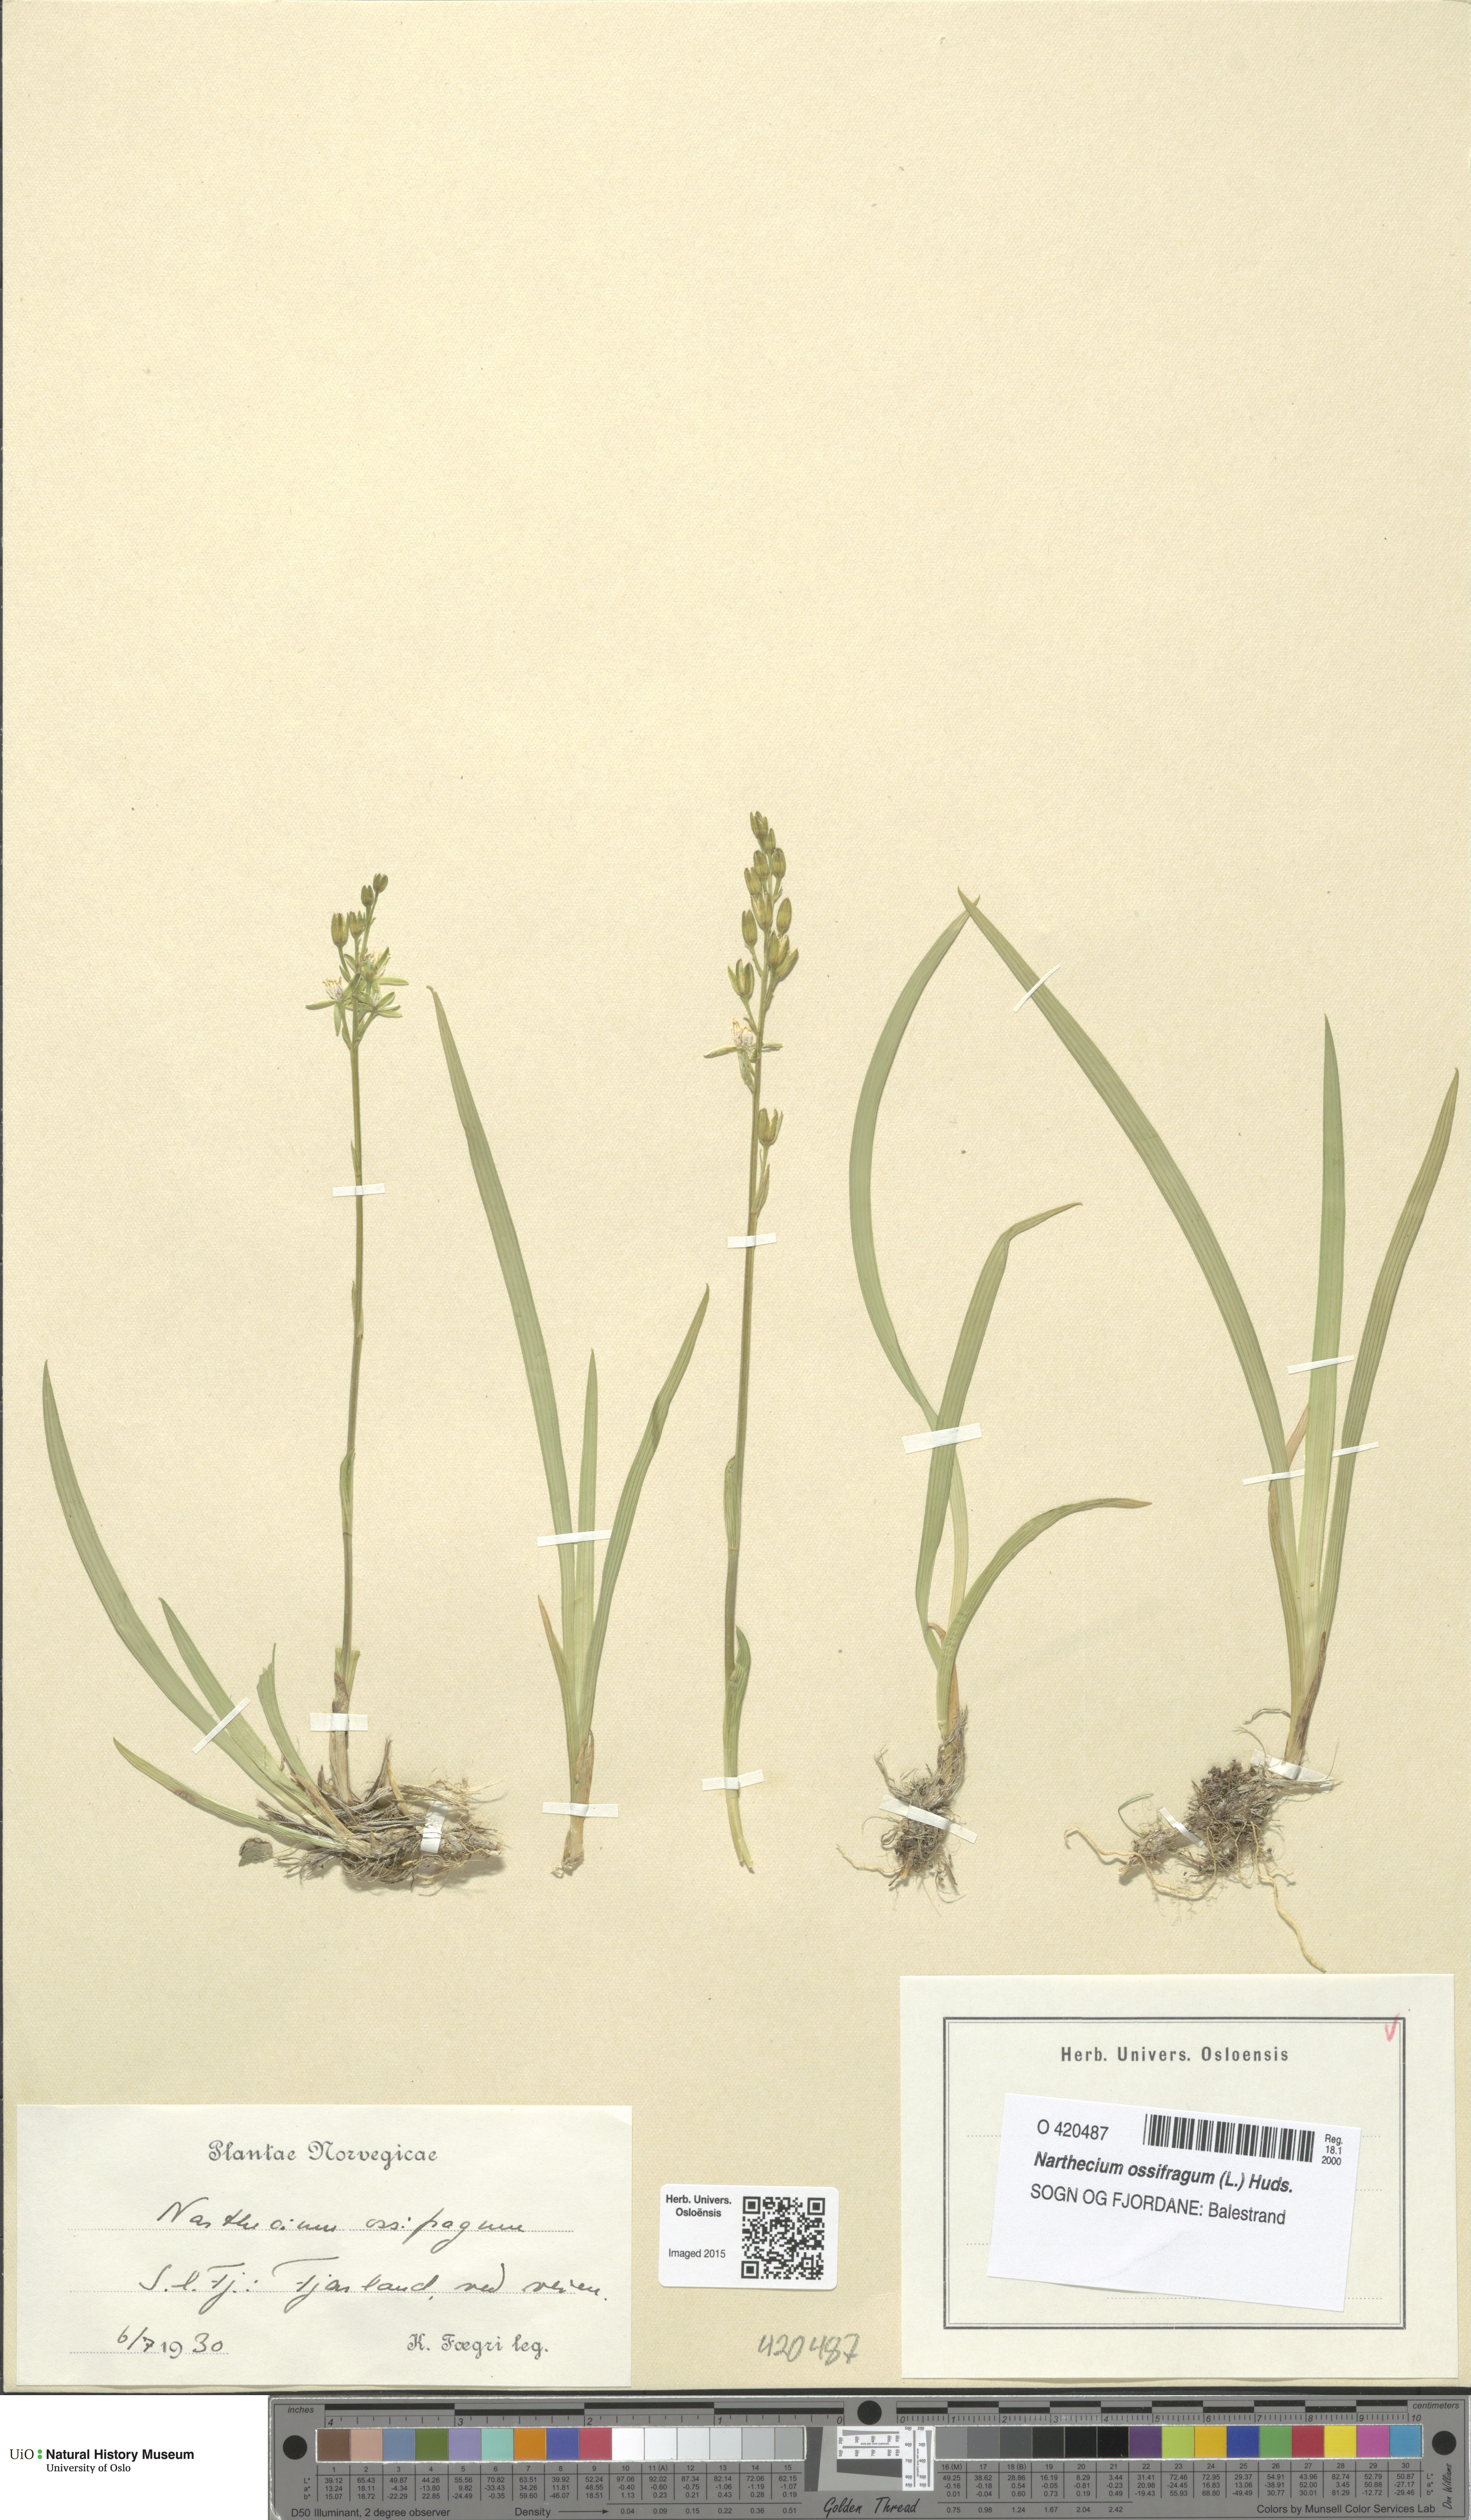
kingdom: Plantae
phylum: Tracheophyta
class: Liliopsida
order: Dioscoreales
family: Nartheciaceae
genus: Narthecium
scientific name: Narthecium ossifragum
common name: Bog asphodel
